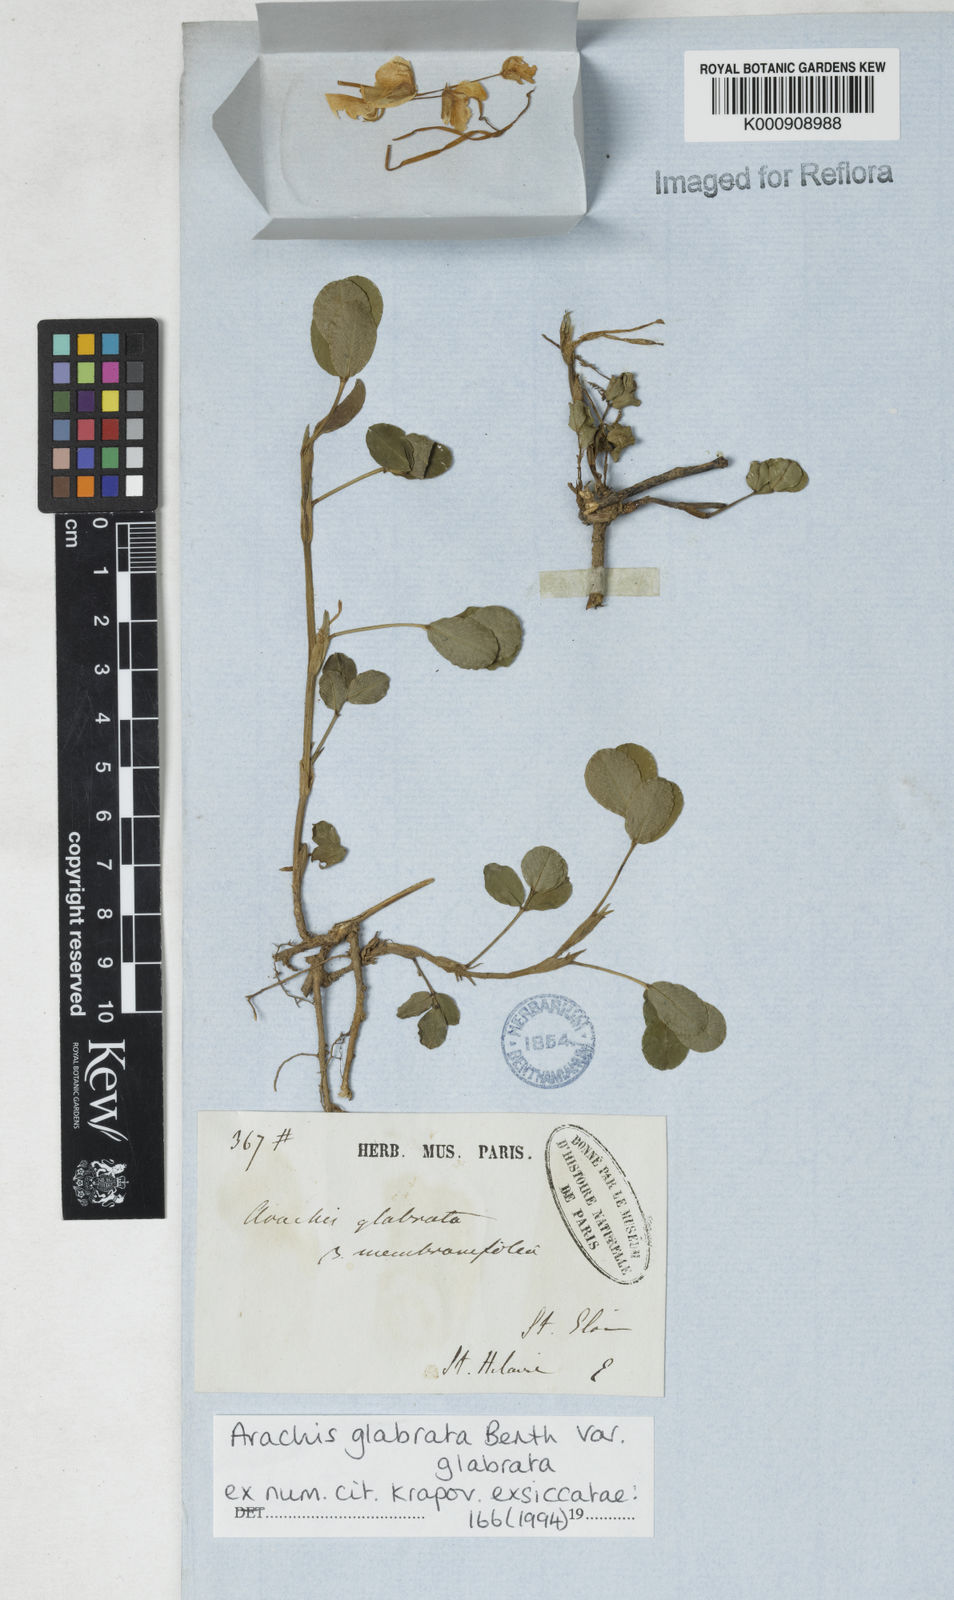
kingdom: Plantae
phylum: Tracheophyta
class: Magnoliopsida
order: Fabales
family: Fabaceae
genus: Arachis
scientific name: Arachis glabrata
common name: Rhizoma peanut
